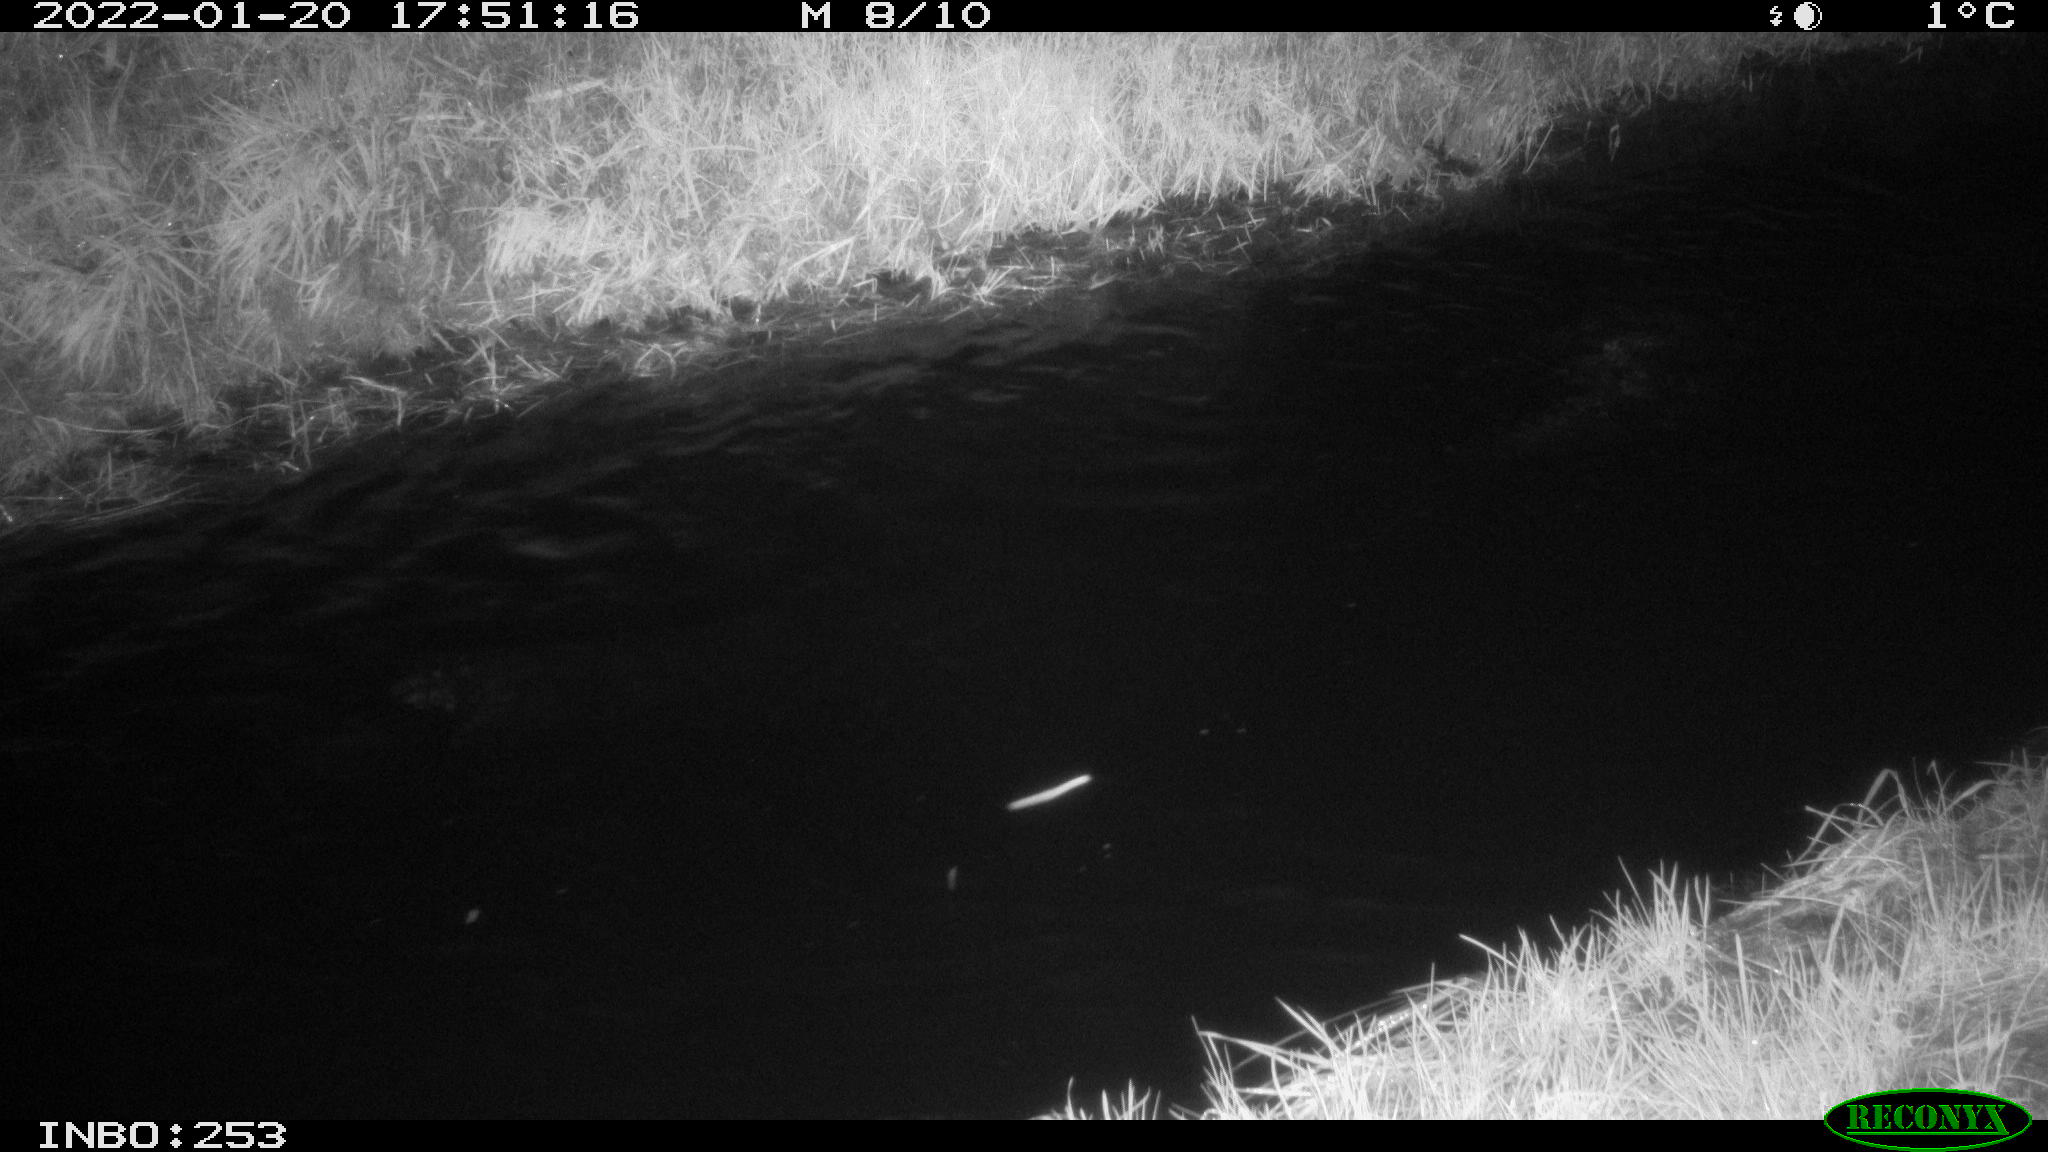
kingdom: Animalia
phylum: Chordata
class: Aves
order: Anseriformes
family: Anatidae
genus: Anas
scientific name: Anas
